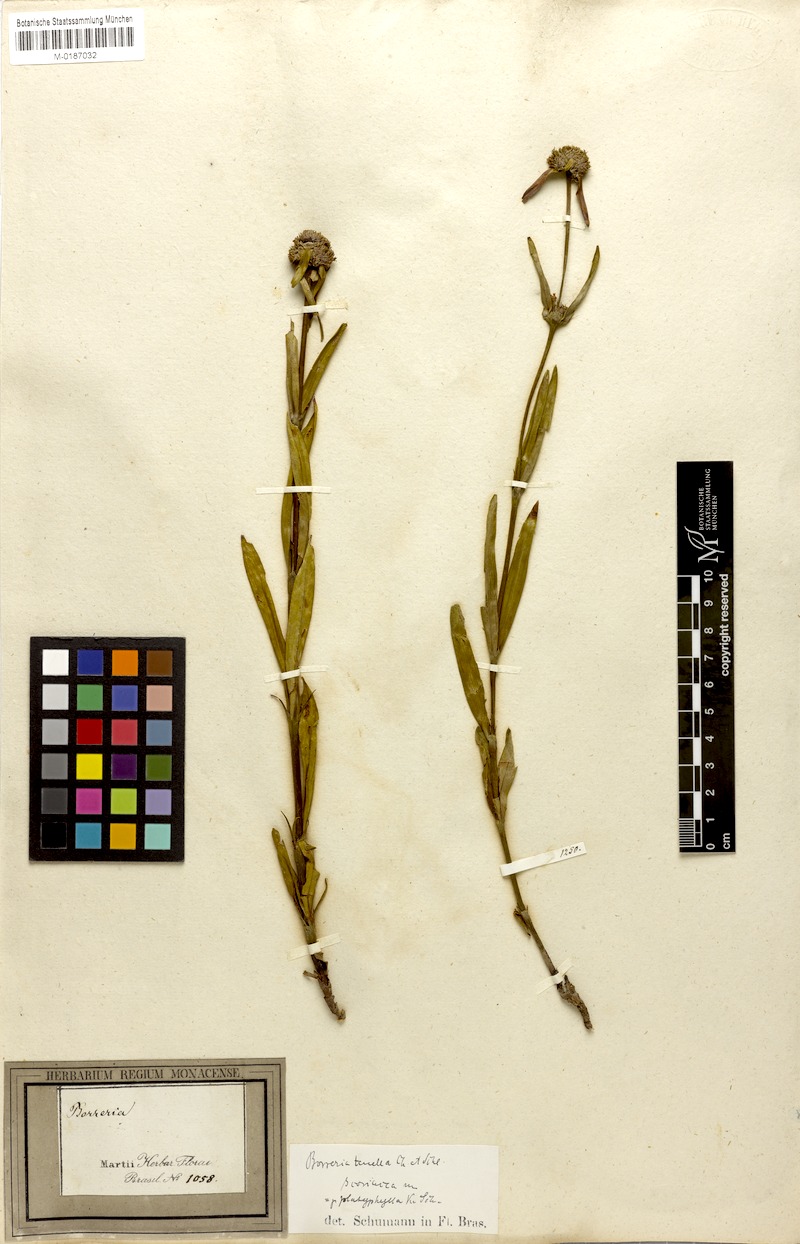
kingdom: Plantae
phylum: Tracheophyta
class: Magnoliopsida
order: Gentianales
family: Rubiaceae
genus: Spermacoce
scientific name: Spermacoce orinocensis
